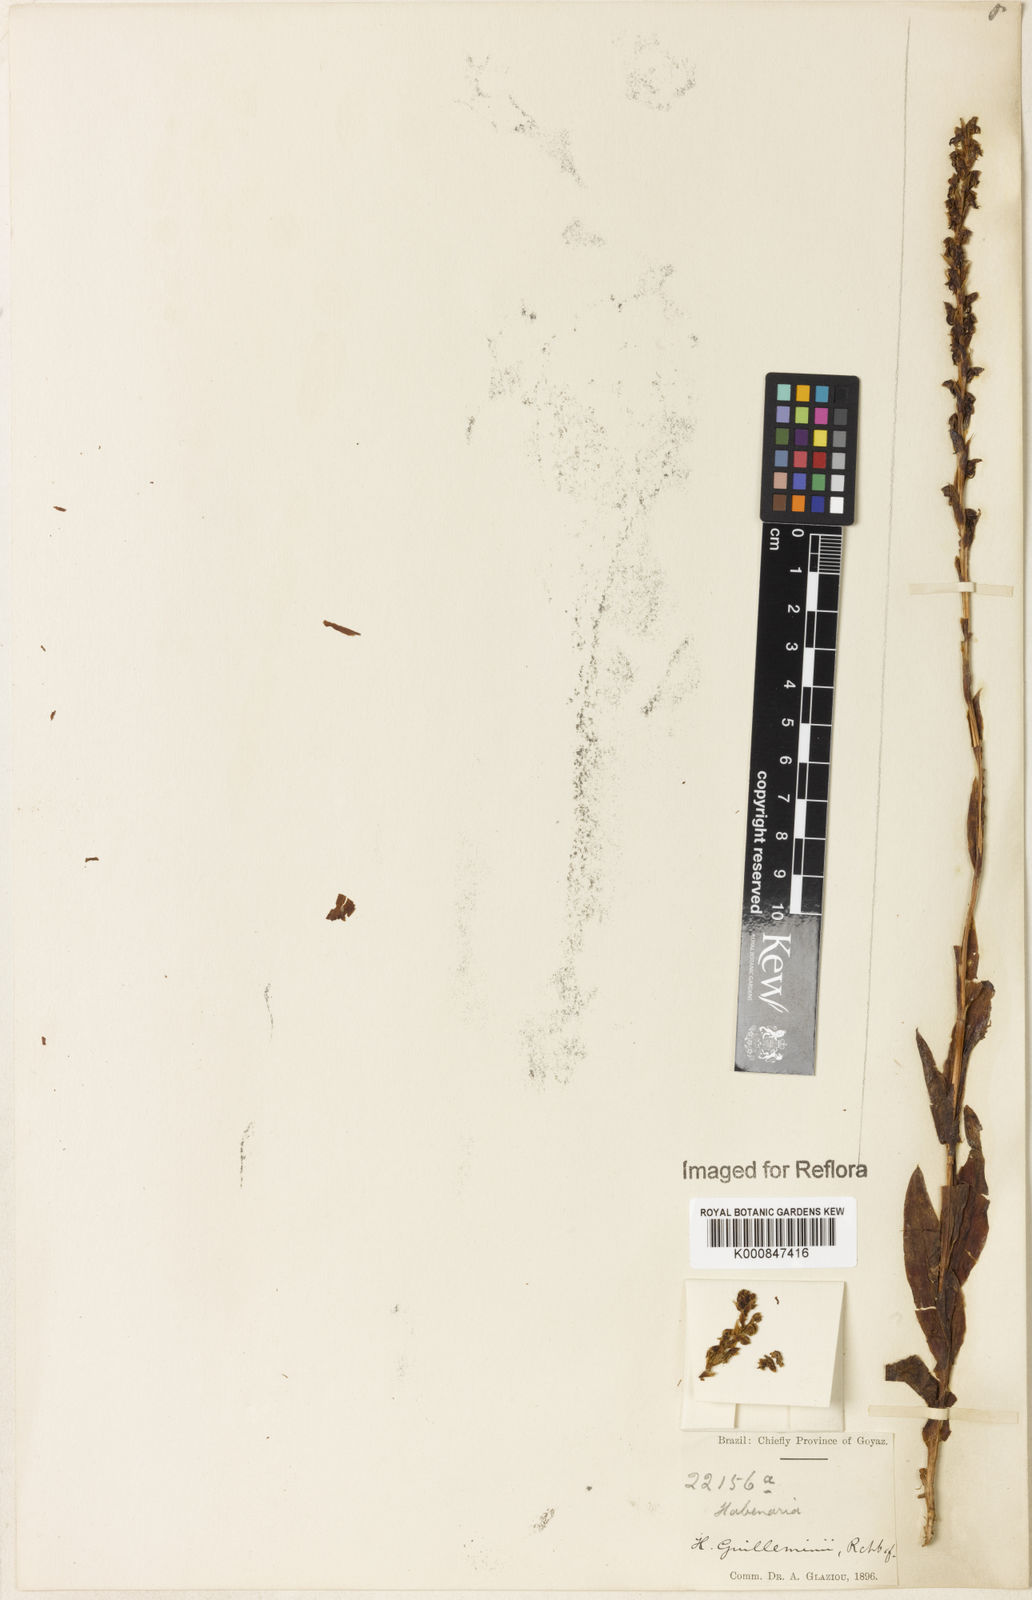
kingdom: Plantae
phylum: Tracheophyta
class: Liliopsida
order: Asparagales
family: Orchidaceae
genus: Habenaria
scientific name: Habenaria guilleminii
